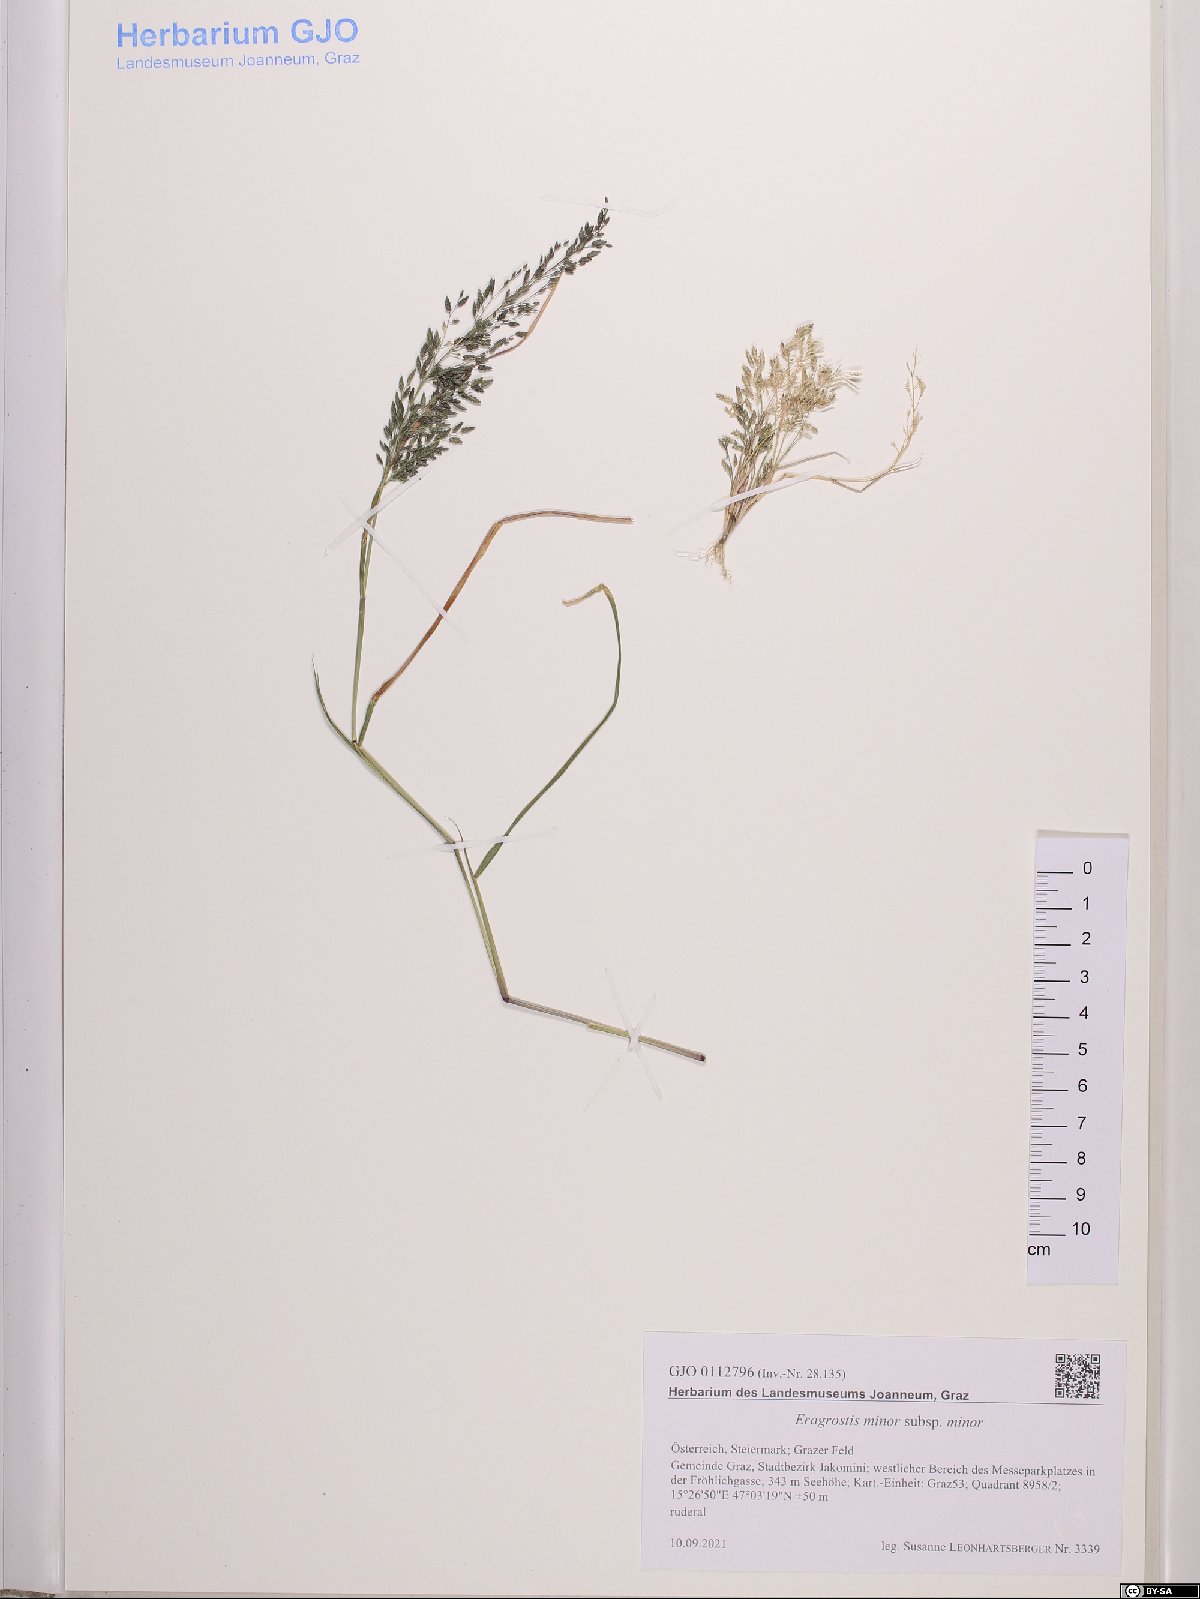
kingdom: Plantae
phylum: Tracheophyta
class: Liliopsida
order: Poales
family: Poaceae
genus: Eragrostis
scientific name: Eragrostis minor
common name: Small love-grass
